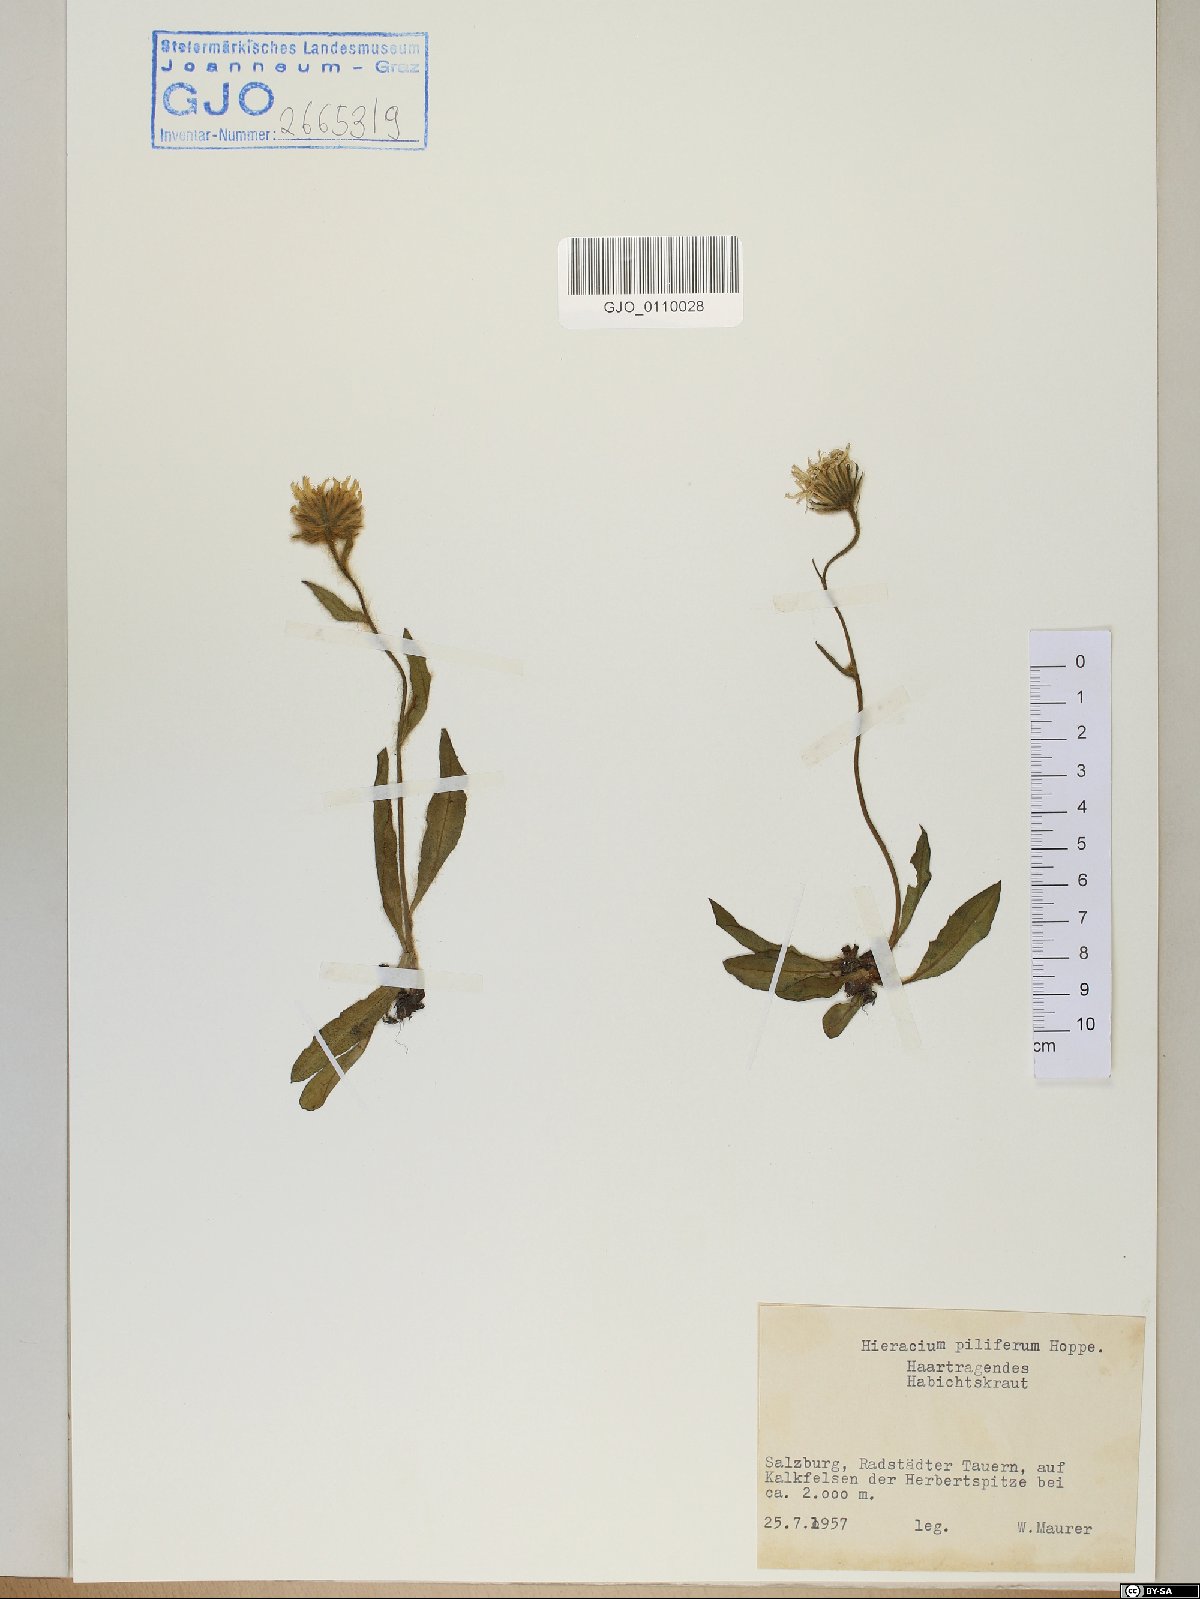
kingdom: Plantae
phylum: Tracheophyta
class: Magnoliopsida
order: Asterales
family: Asteraceae
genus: Hieracium
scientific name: Hieracium piliferum
